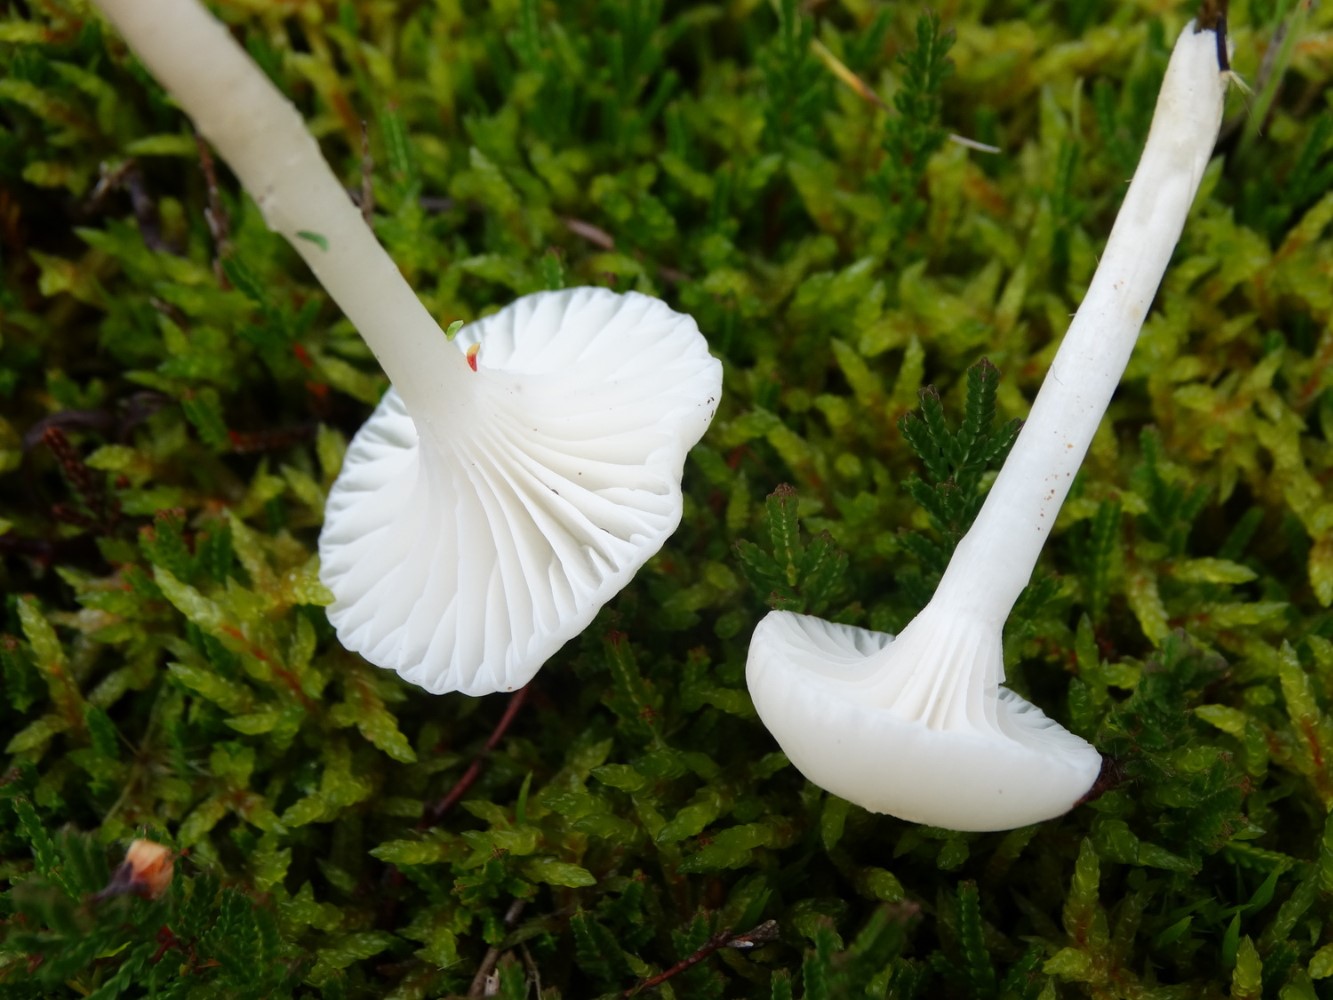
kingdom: Fungi
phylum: Basidiomycota
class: Agaricomycetes
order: Agaricales
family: Hygrophoraceae
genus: Cuphophyllus
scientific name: Cuphophyllus virgineus
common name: snehvid vokshat
